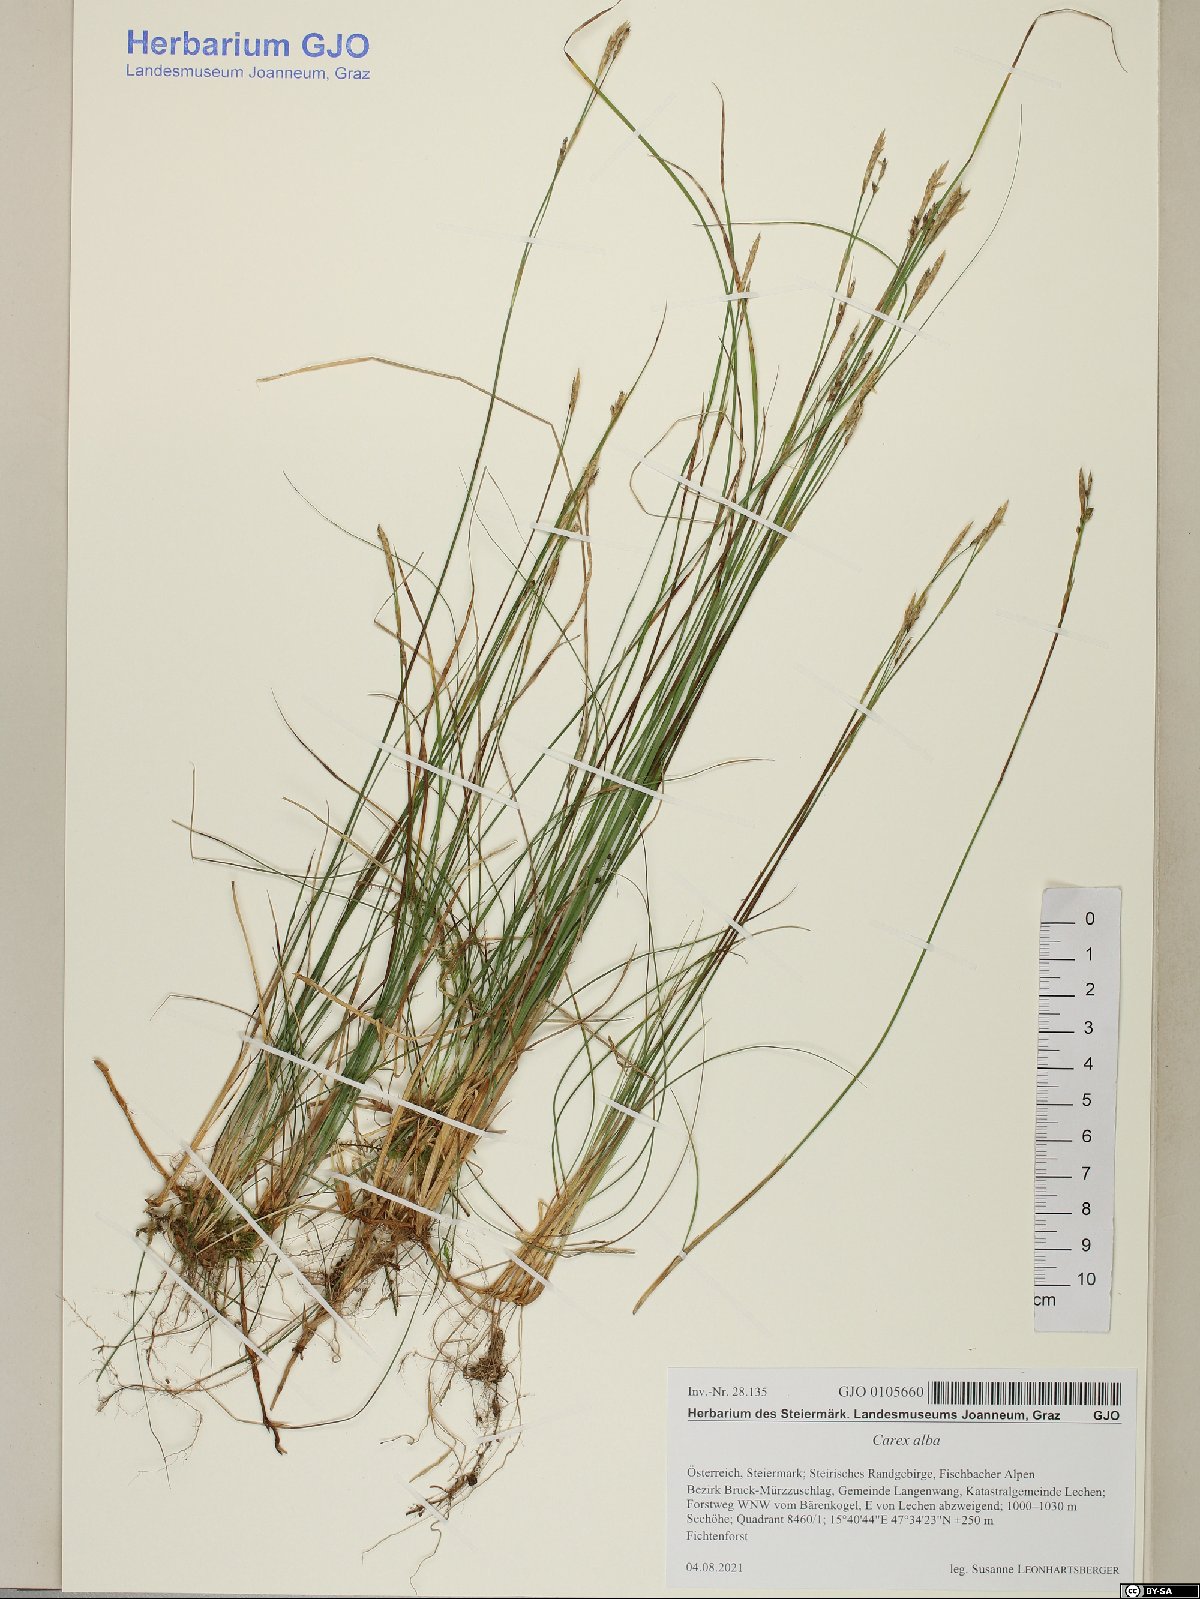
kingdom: Plantae
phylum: Tracheophyta
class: Liliopsida
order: Poales
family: Cyperaceae
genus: Carex
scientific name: Carex alba
